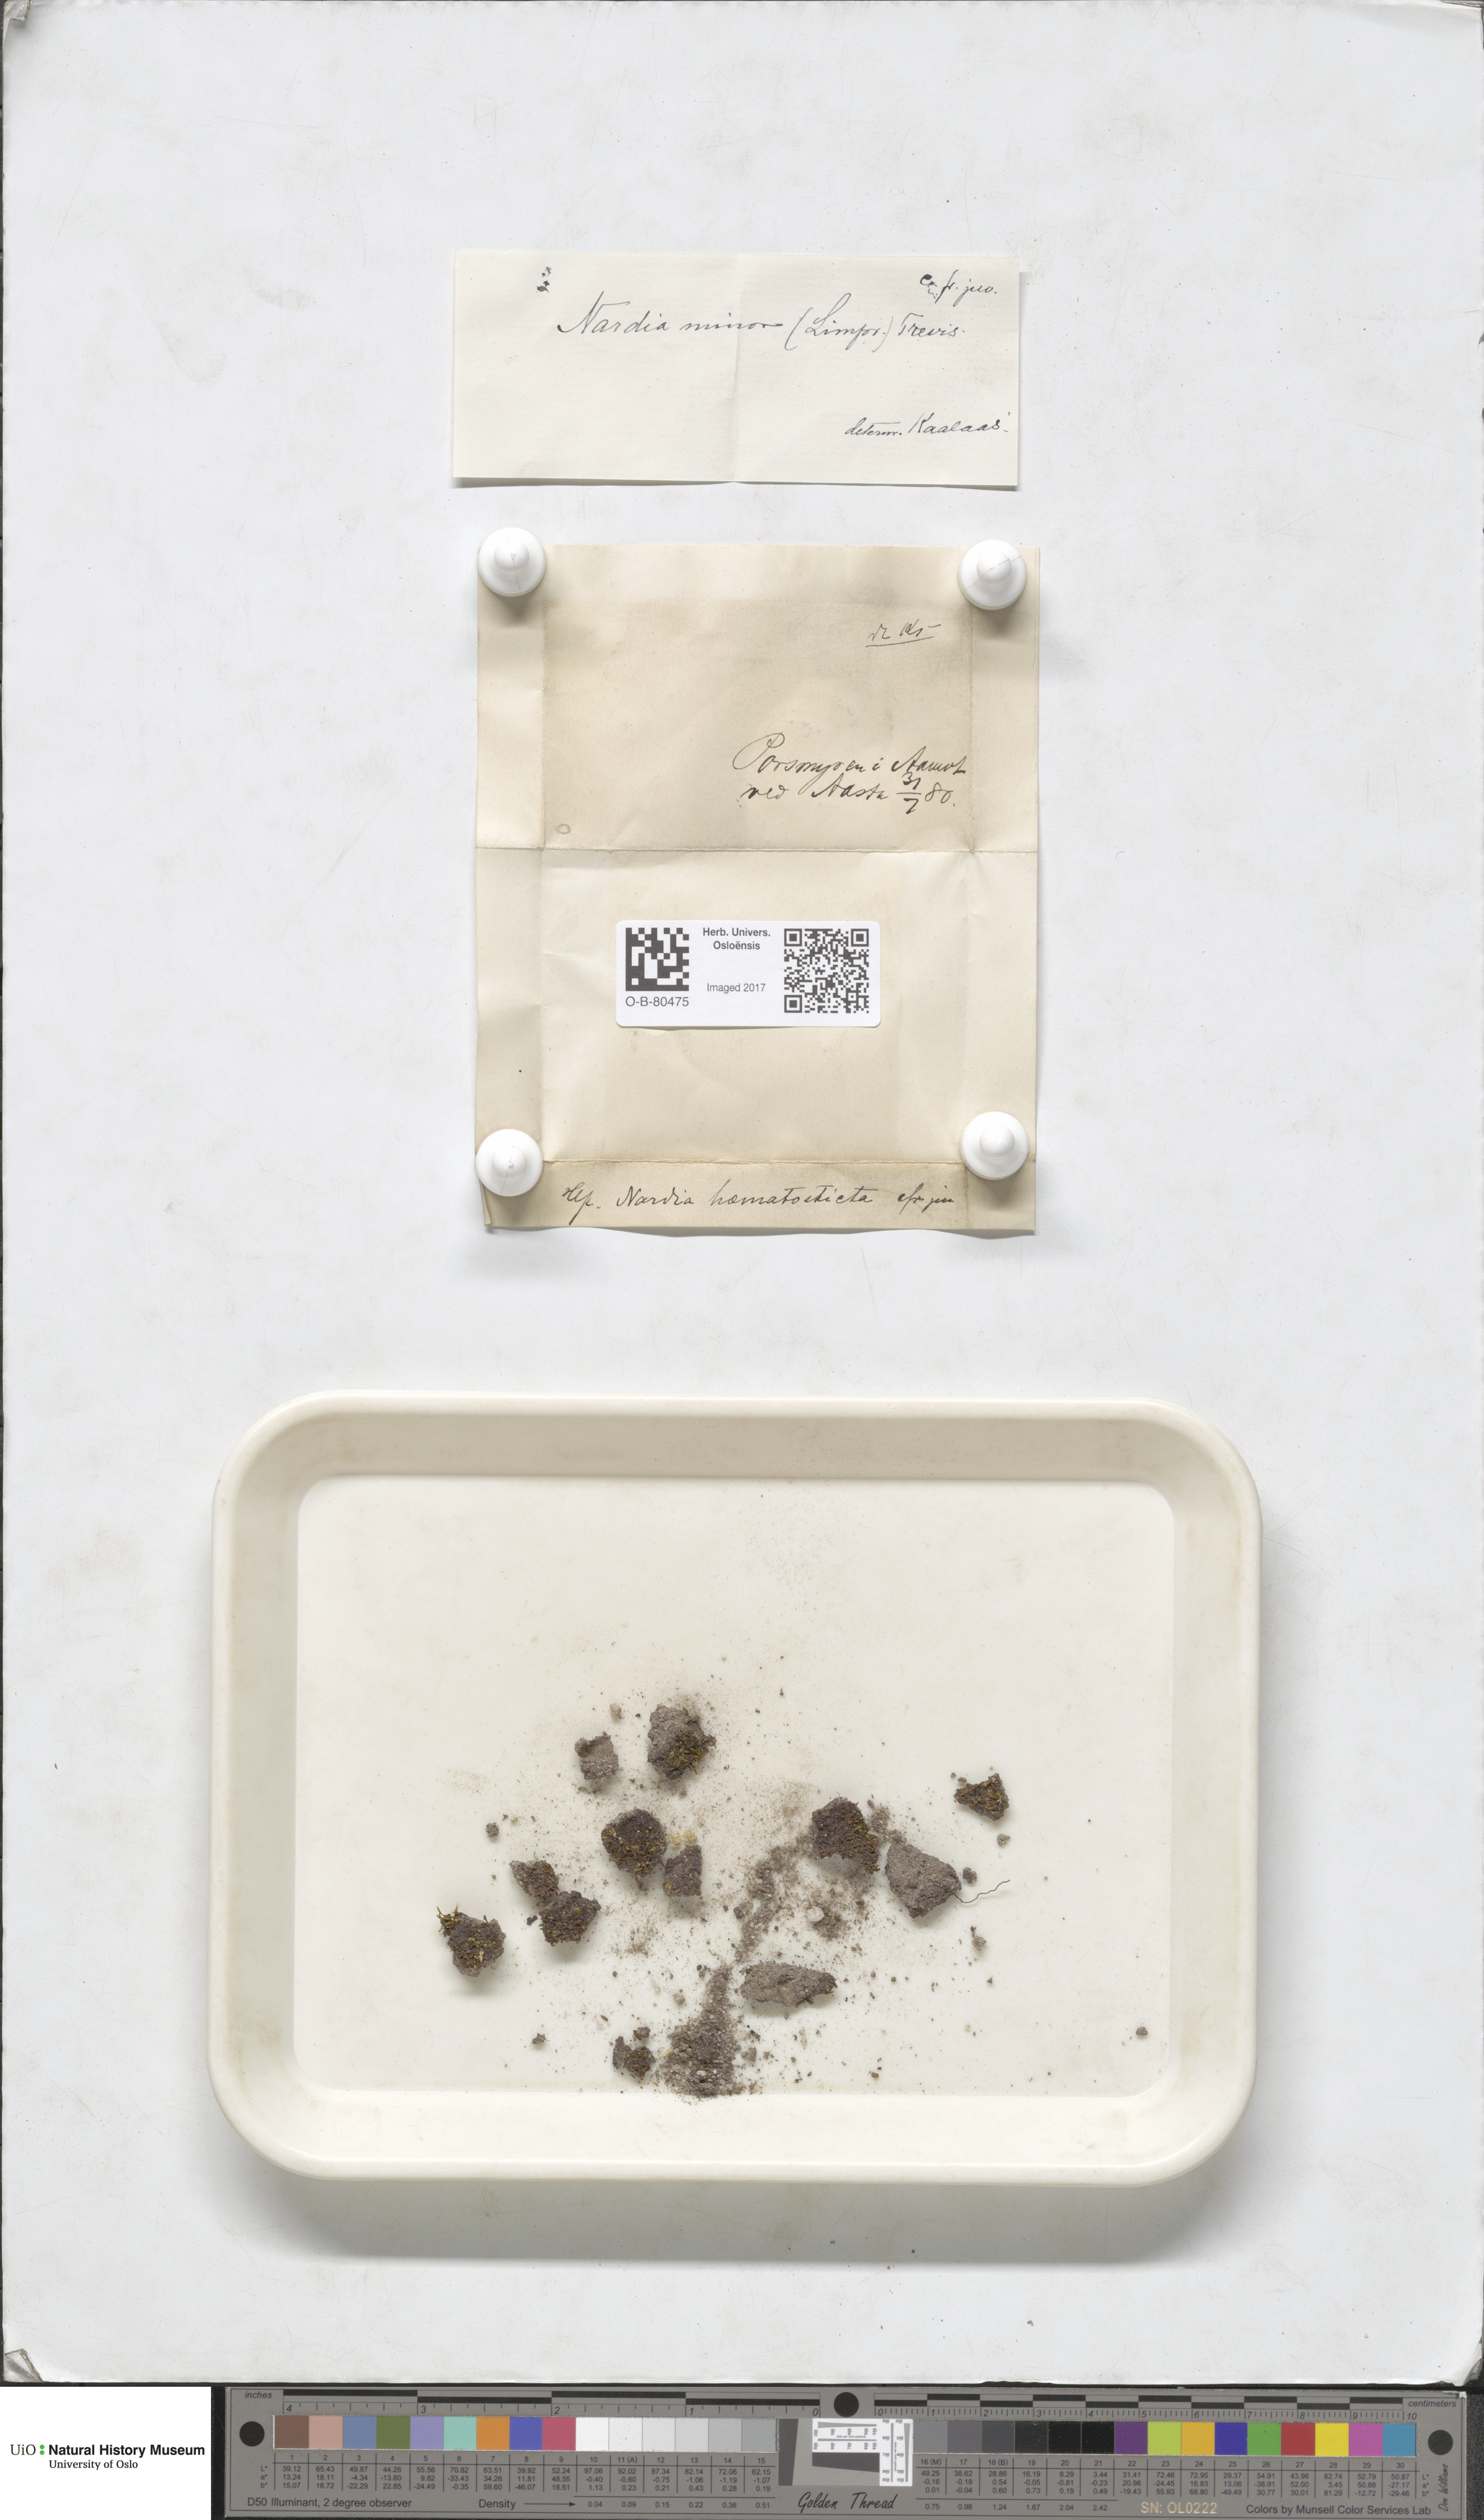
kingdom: Plantae
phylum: Marchantiophyta
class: Jungermanniopsida
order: Jungermanniales
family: Gymnomitriaceae
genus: Nardia
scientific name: Nardia geoscyphus
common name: Earth-cup flapwort
